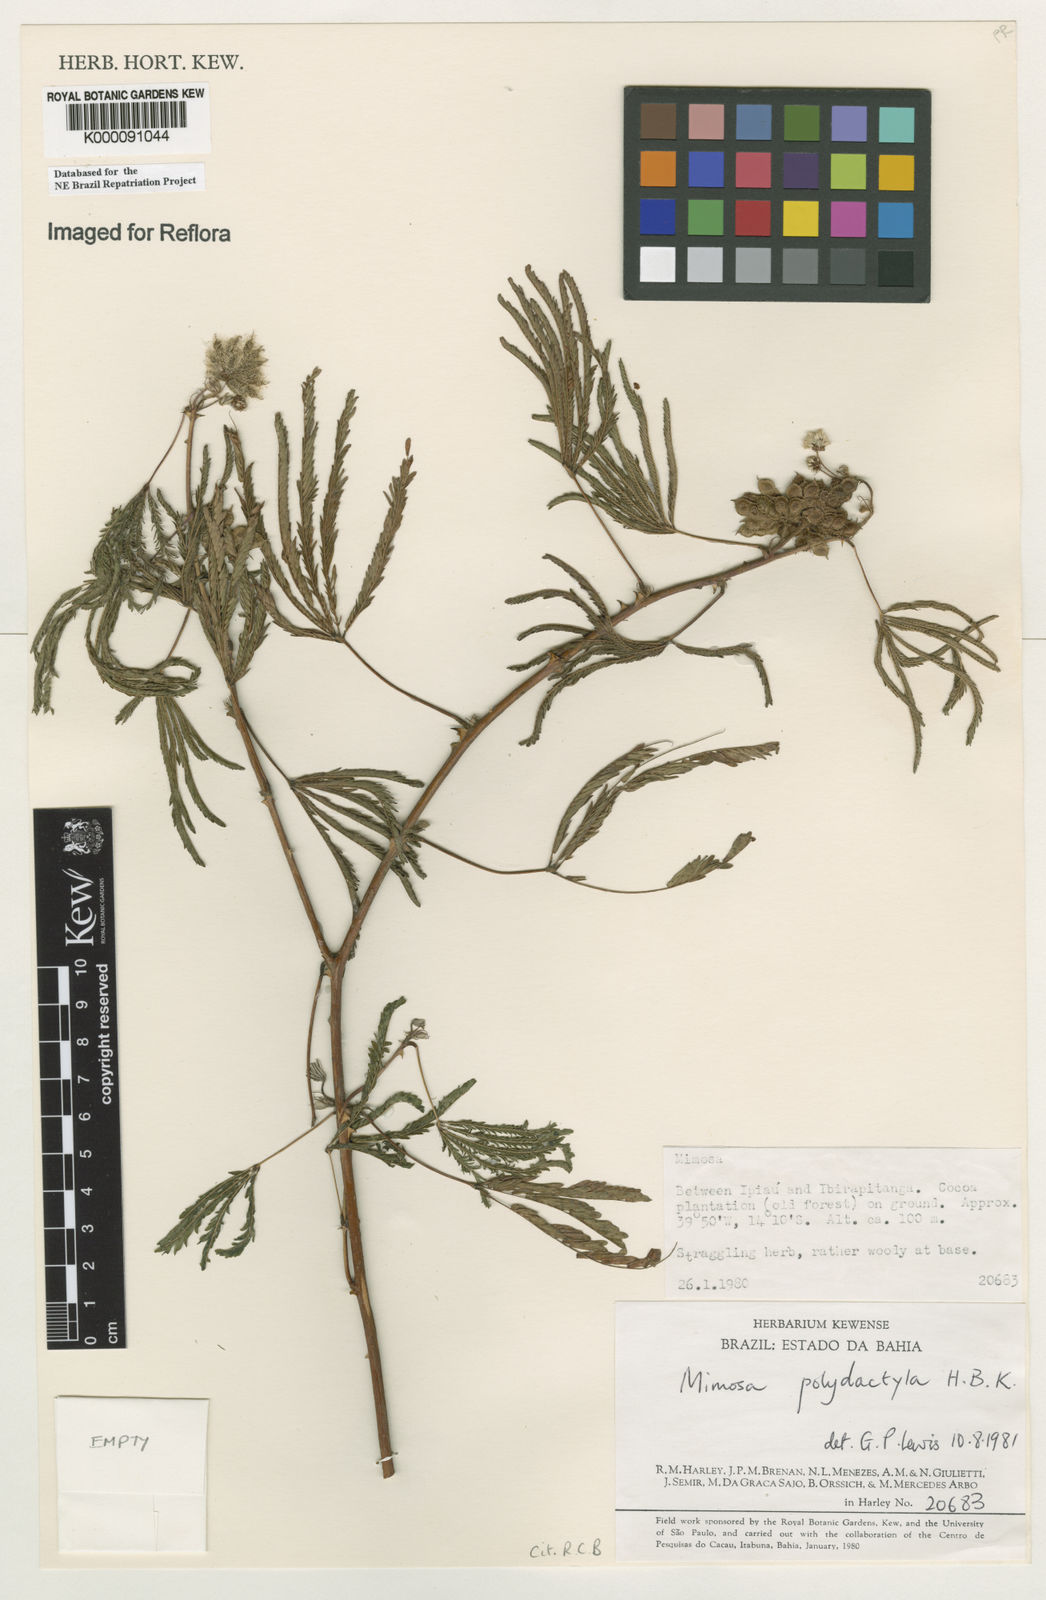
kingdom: Plantae
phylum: Tracheophyta
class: Magnoliopsida
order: Fabales
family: Fabaceae
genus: Mimosa
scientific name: Mimosa
